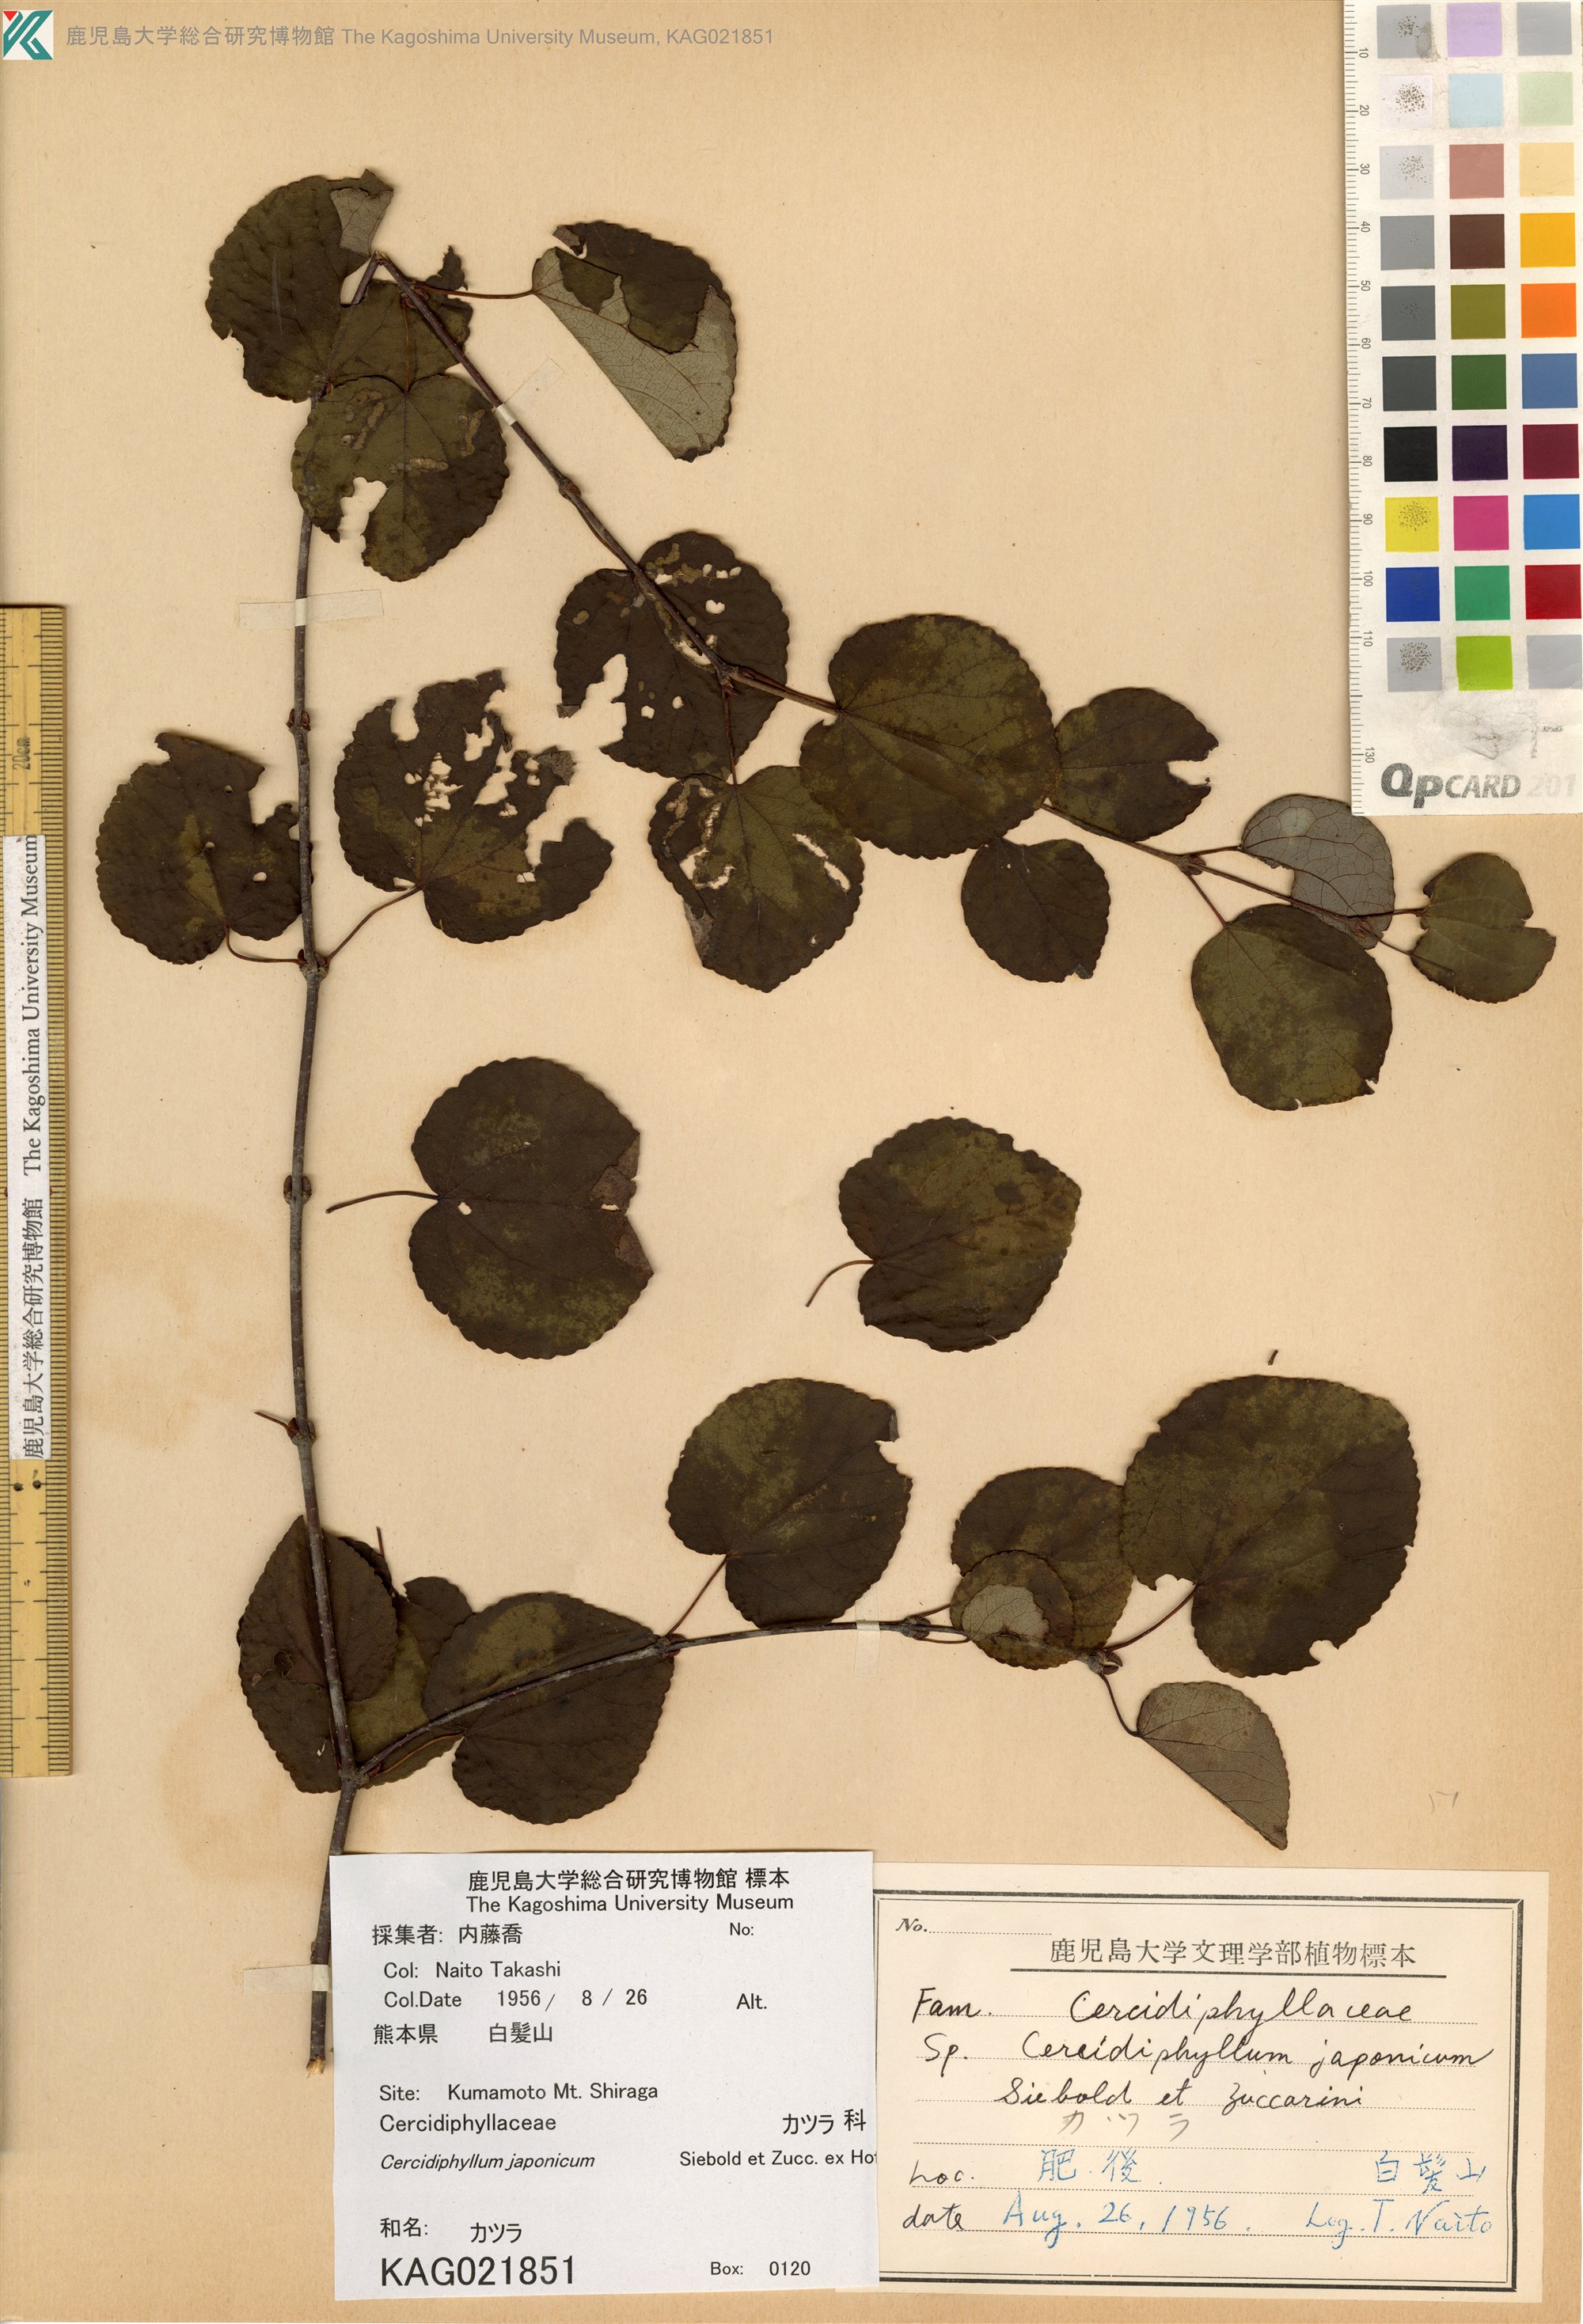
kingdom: Plantae
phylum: Tracheophyta
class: Magnoliopsida
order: Saxifragales
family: Cercidiphyllaceae
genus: Cercidiphyllum
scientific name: Cercidiphyllum japonicum
